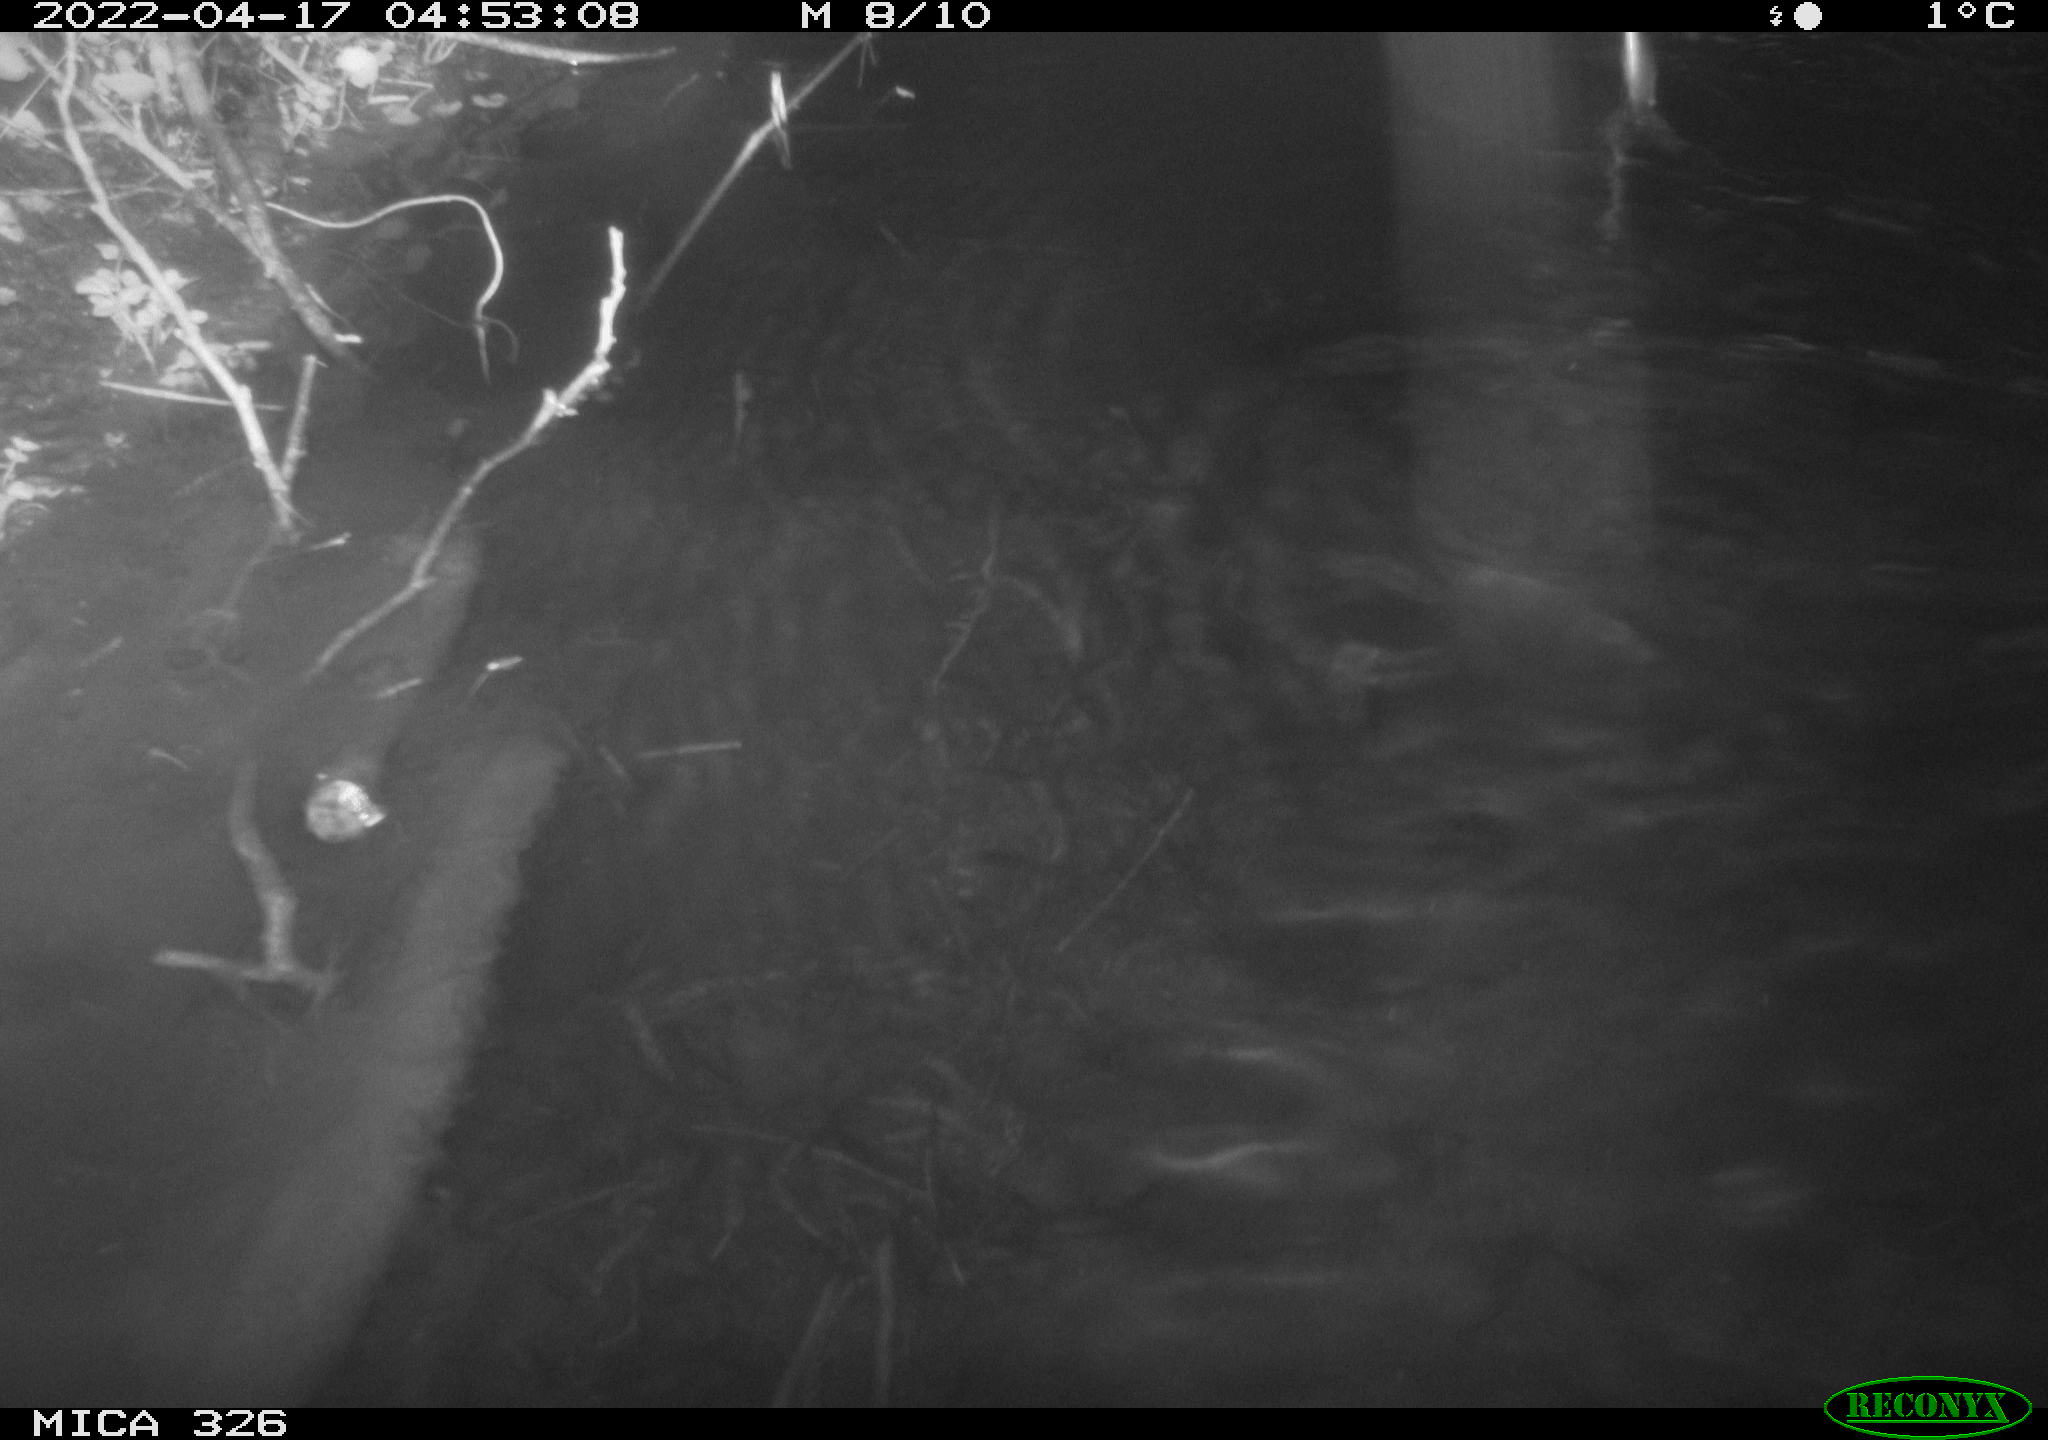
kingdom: Animalia
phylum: Chordata
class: Aves
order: Pelecaniformes
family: Ardeidae
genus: Ardea
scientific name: Ardea alba
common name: Great egret
